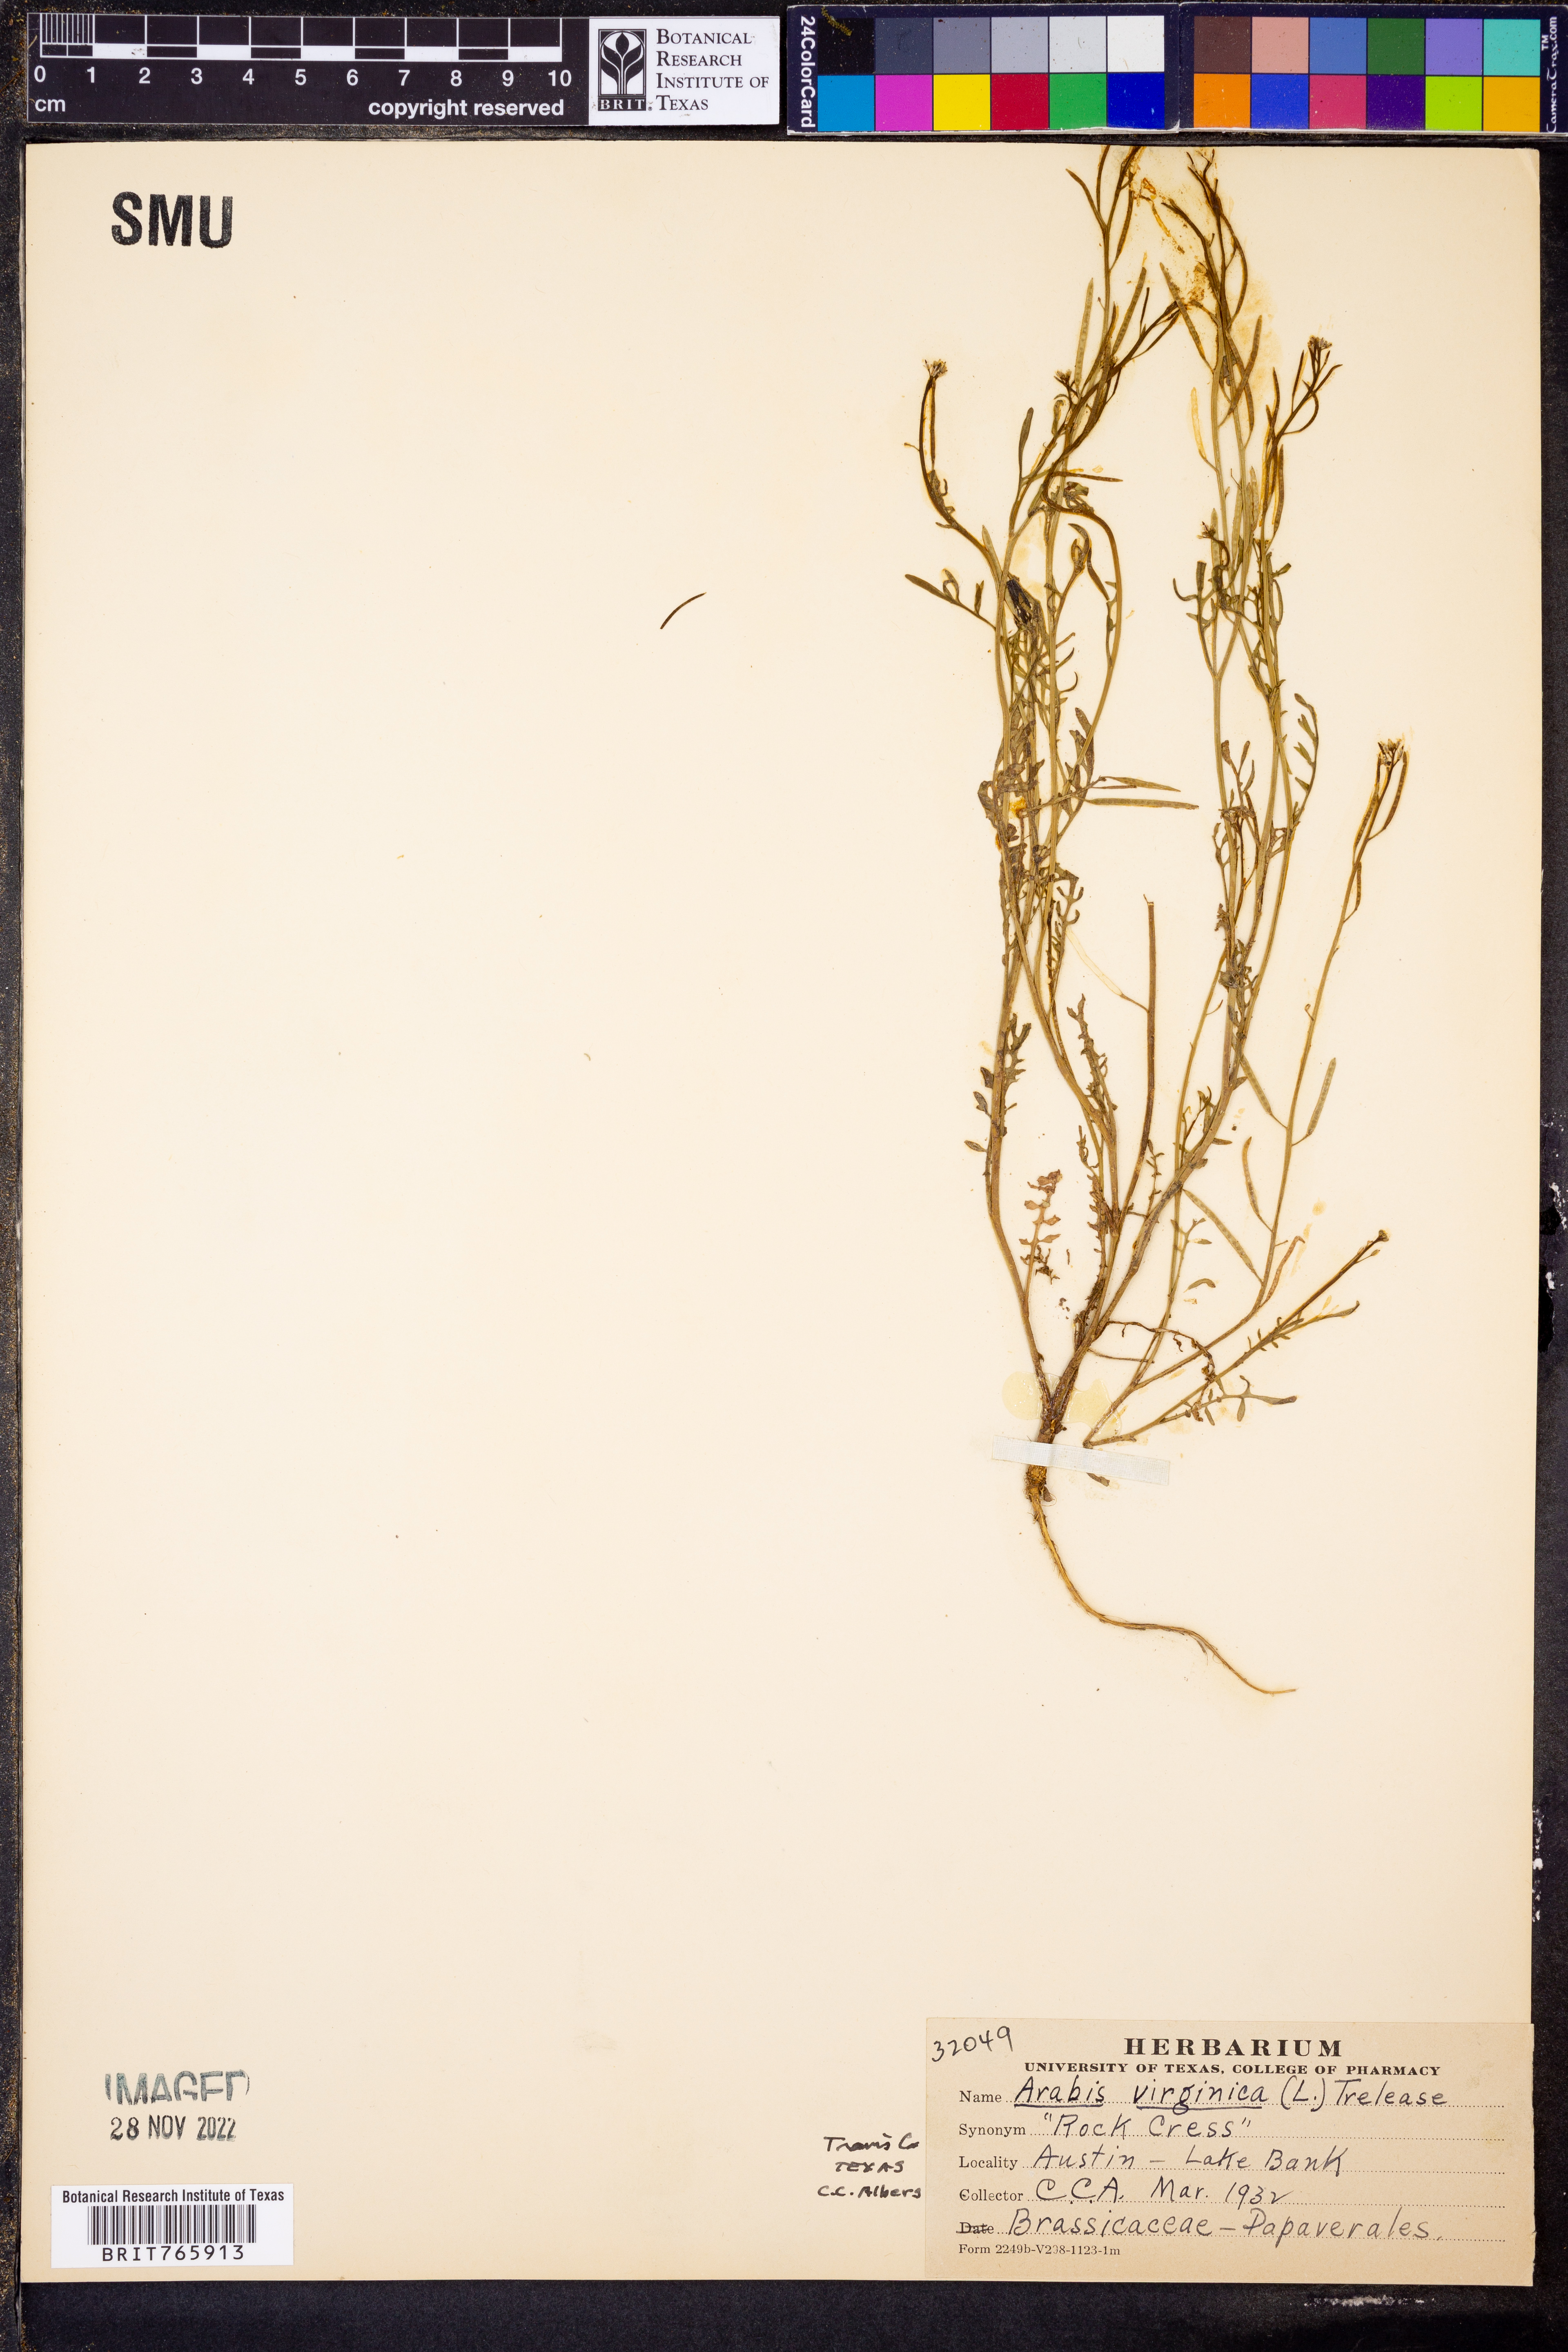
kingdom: Plantae
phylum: Tracheophyta
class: Magnoliopsida
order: Brassicales
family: Brassicaceae
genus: Planodes
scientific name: Planodes virginicum
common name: Virginia cress
